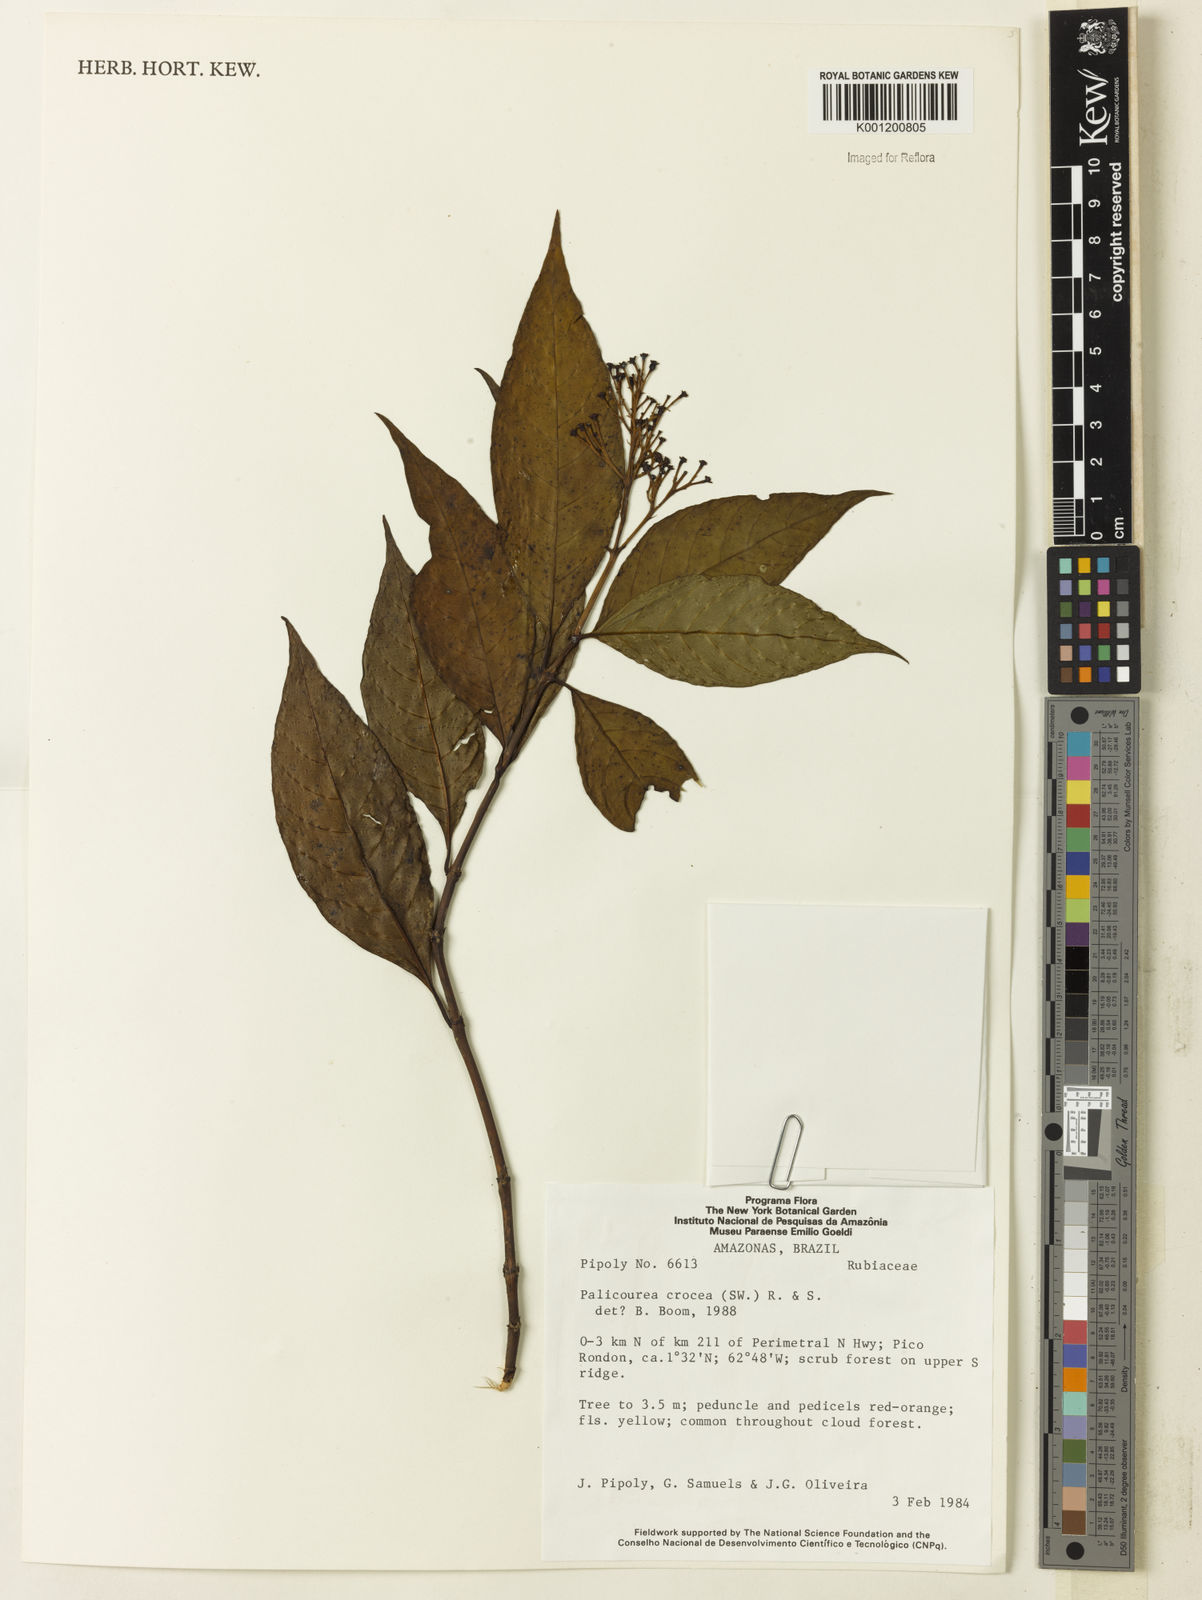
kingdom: Plantae
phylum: Tracheophyta
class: Magnoliopsida
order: Gentianales
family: Rubiaceae
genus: Palicourea
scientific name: Palicourea crocea
